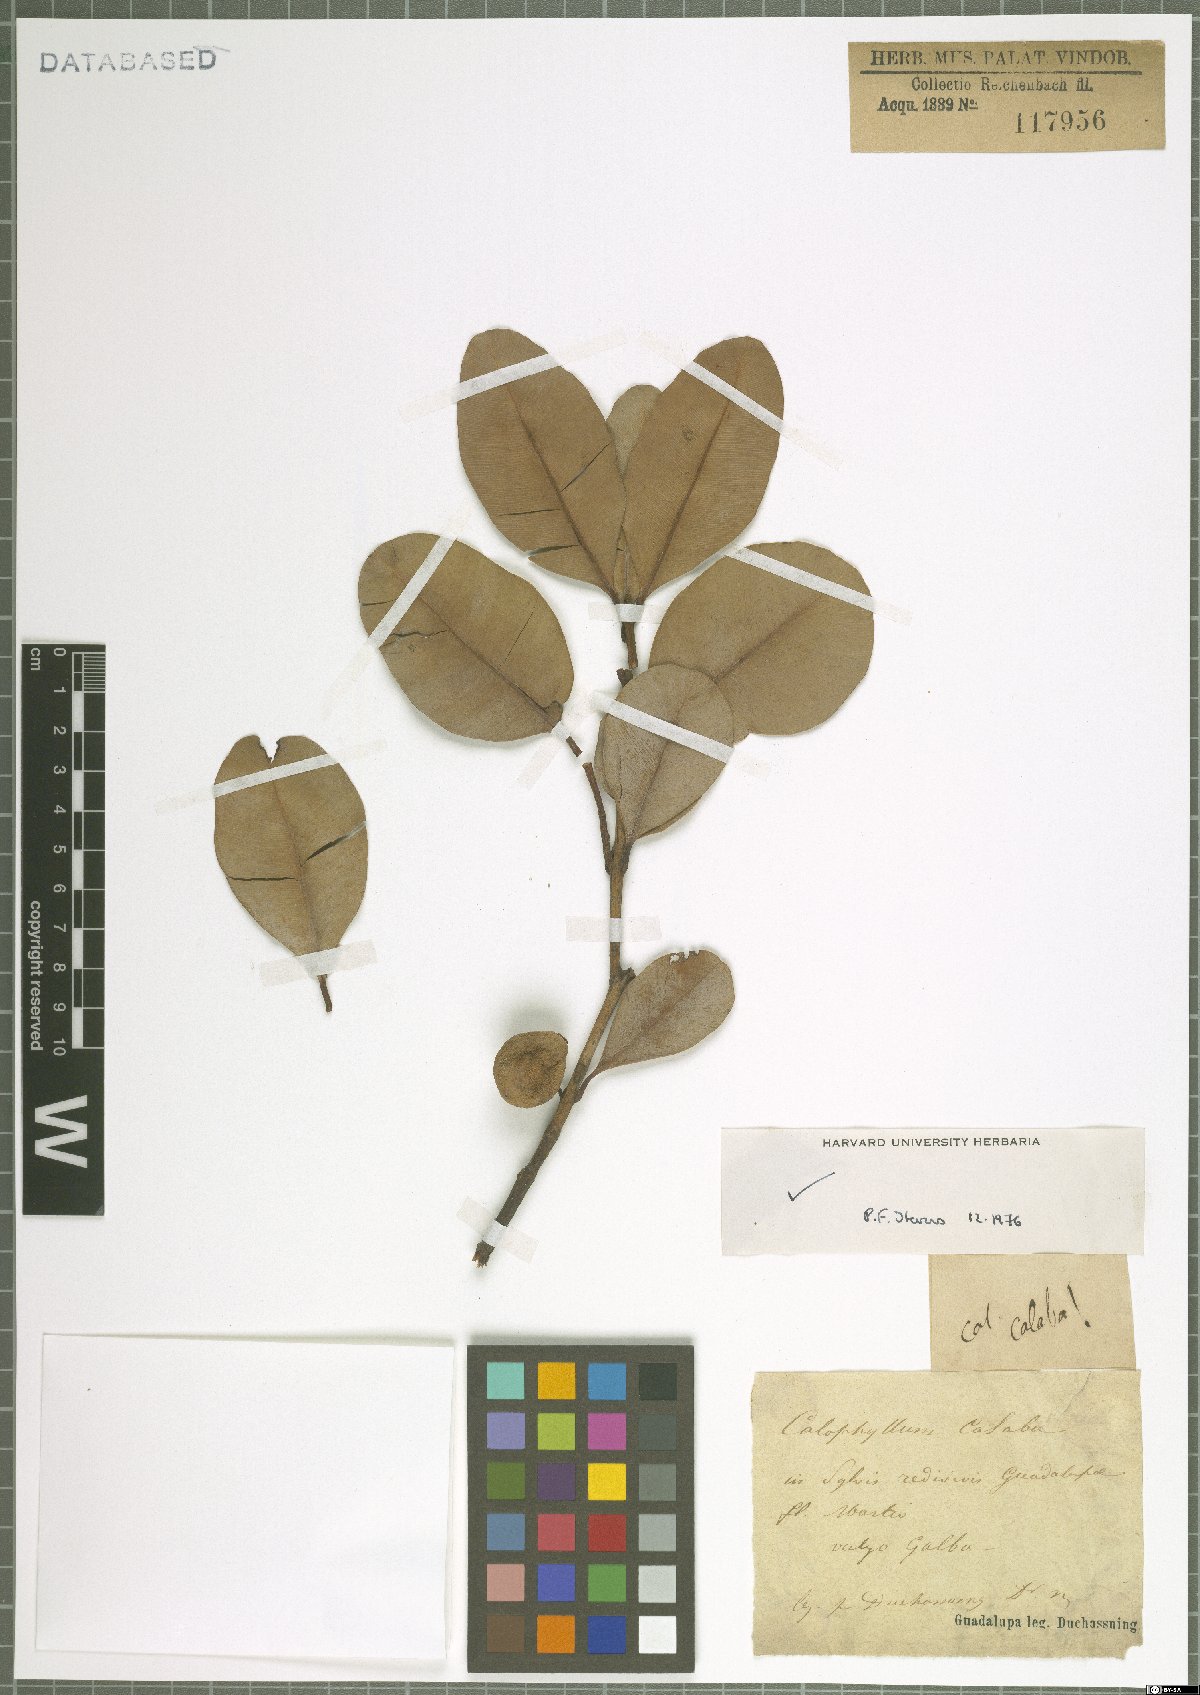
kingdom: Plantae
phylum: Tracheophyta
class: Magnoliopsida
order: Malpighiales
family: Calophyllaceae
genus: Calophyllum
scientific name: Calophyllum calaba
